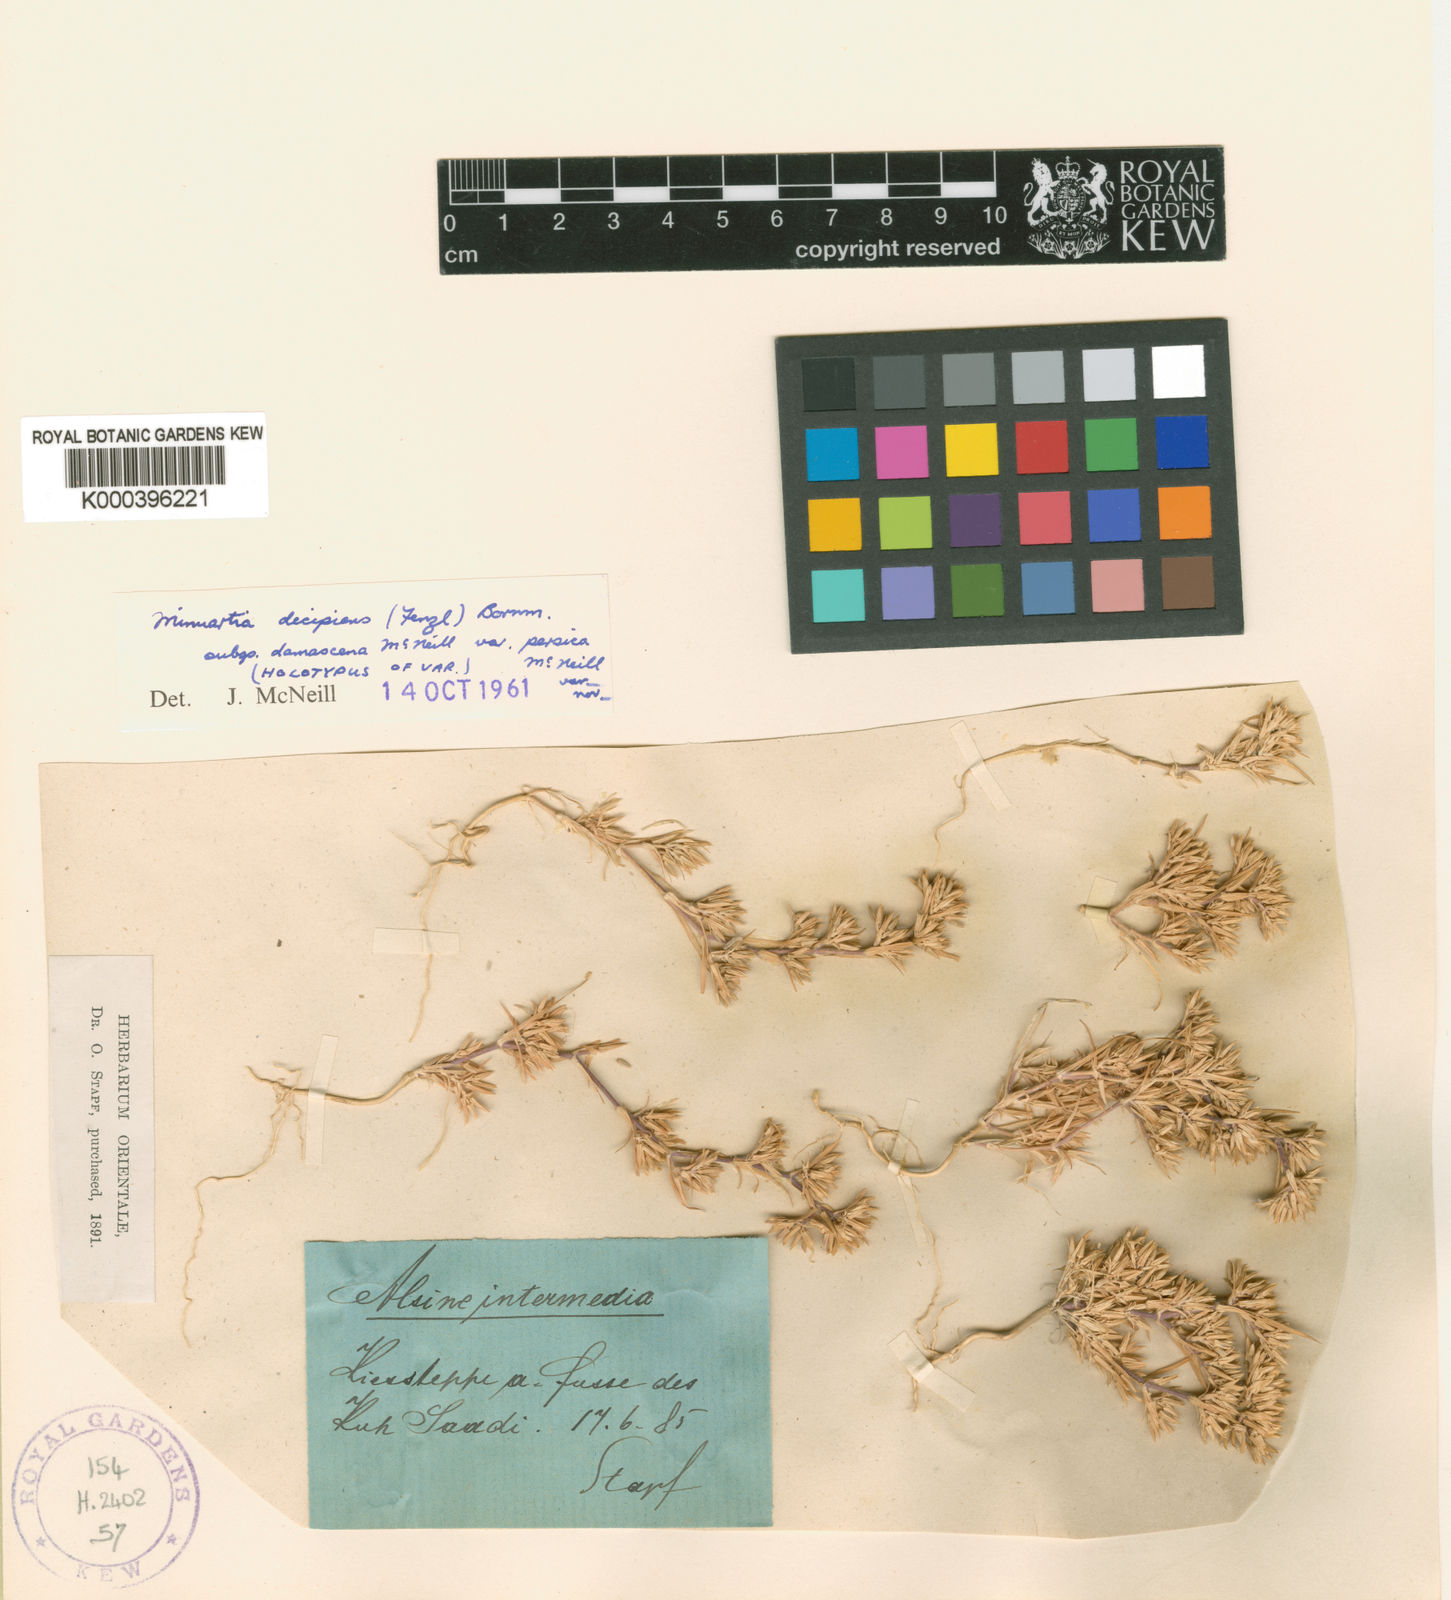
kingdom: Plantae
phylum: Tracheophyta
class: Magnoliopsida
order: Caryophyllales
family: Caryophyllaceae
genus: Minuartia
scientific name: Minuartia decipiens
